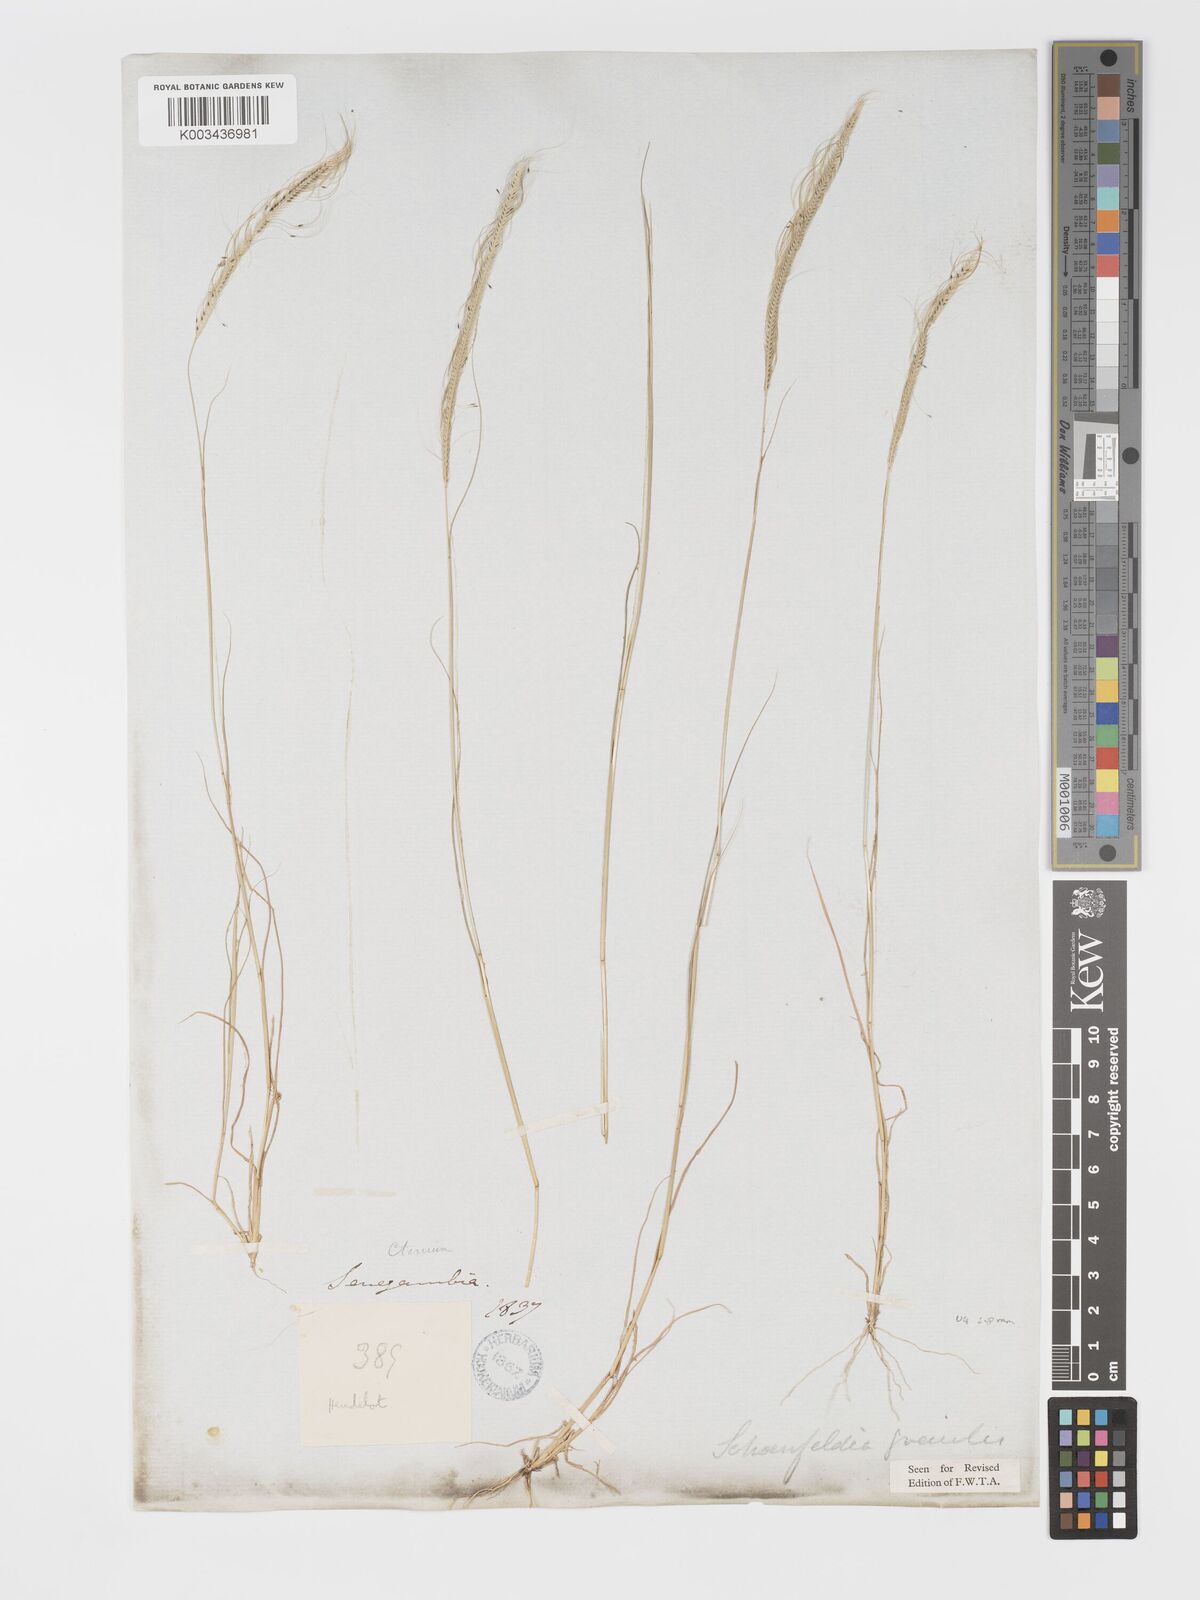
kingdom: Plantae
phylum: Tracheophyta
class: Liliopsida
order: Poales
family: Poaceae
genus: Schoenefeldia
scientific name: Schoenefeldia gracilis
